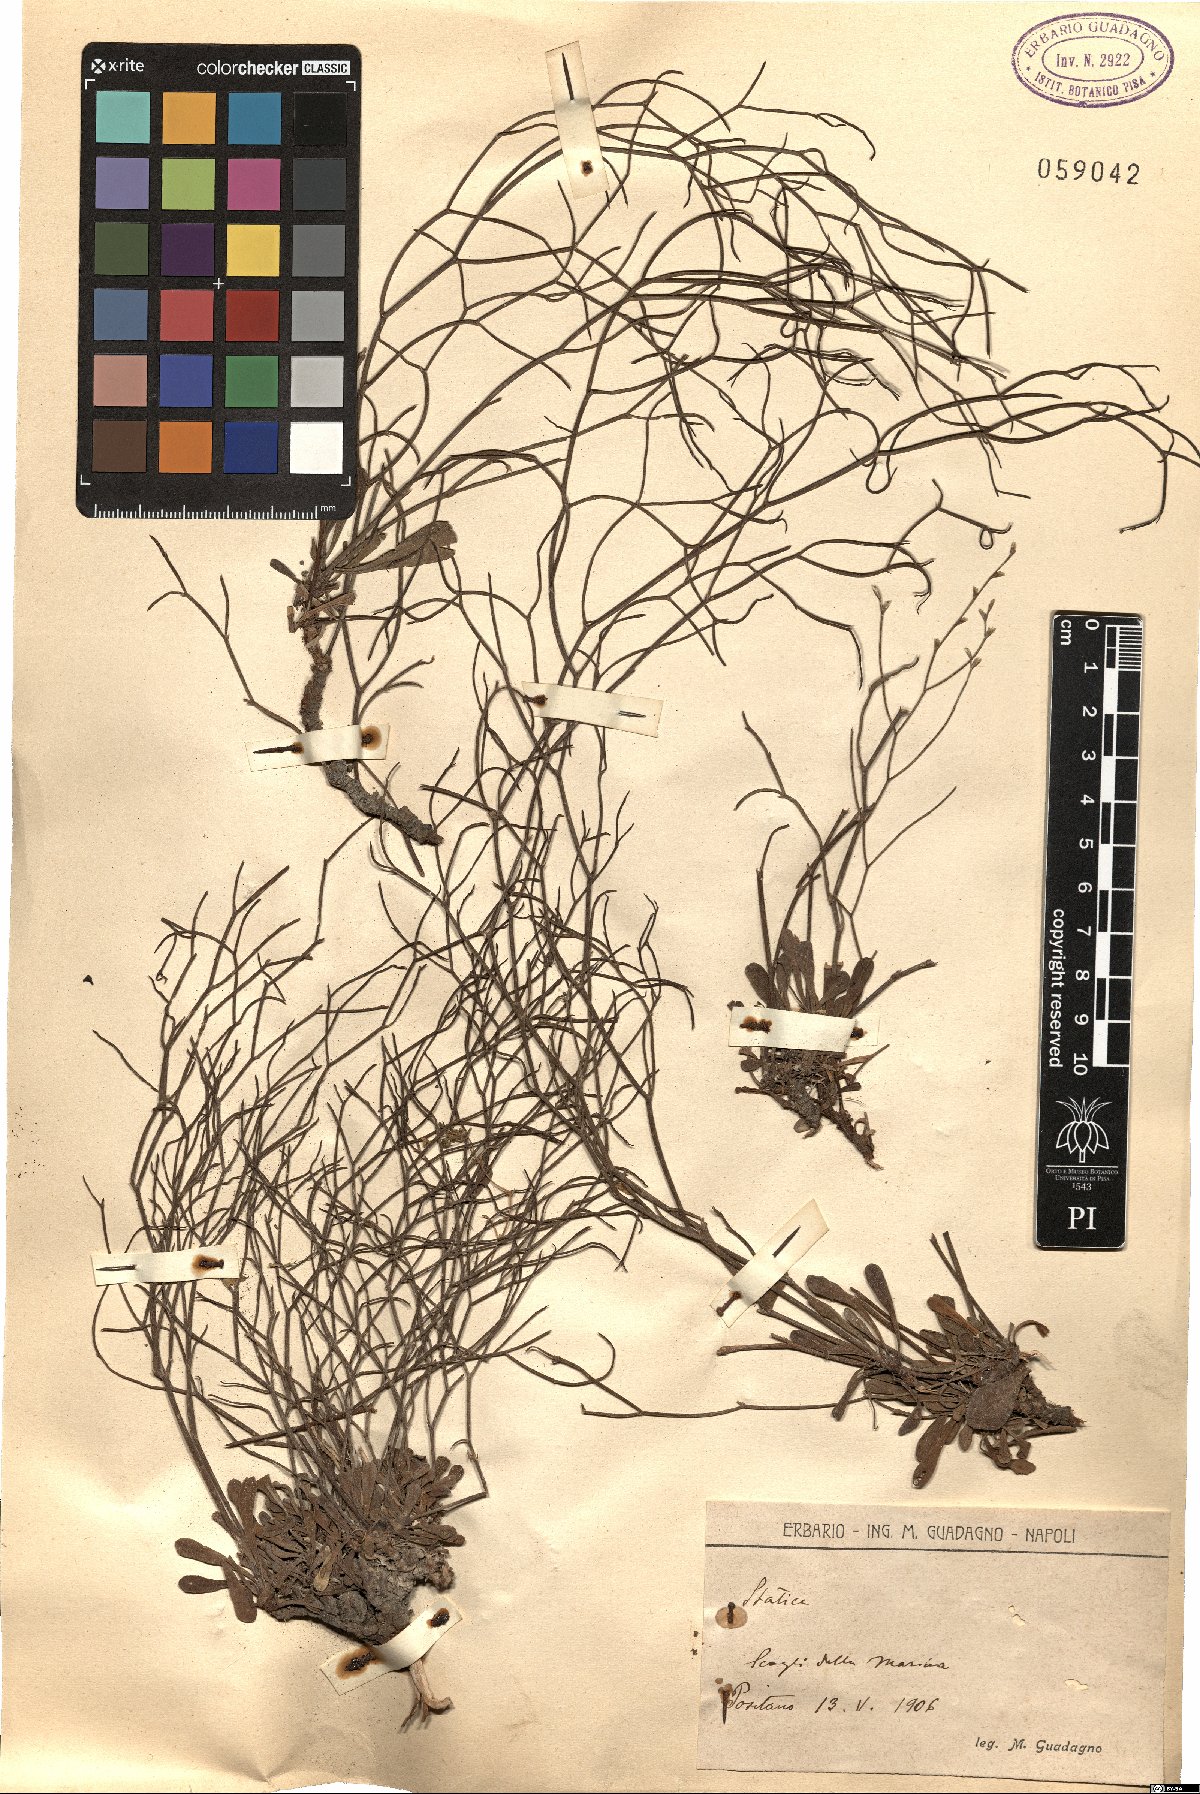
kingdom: Plantae
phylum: Tracheophyta
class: Magnoliopsida
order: Caryophyllales
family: Plumbaginaceae
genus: Limonium
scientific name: Limonium remotispiculum
